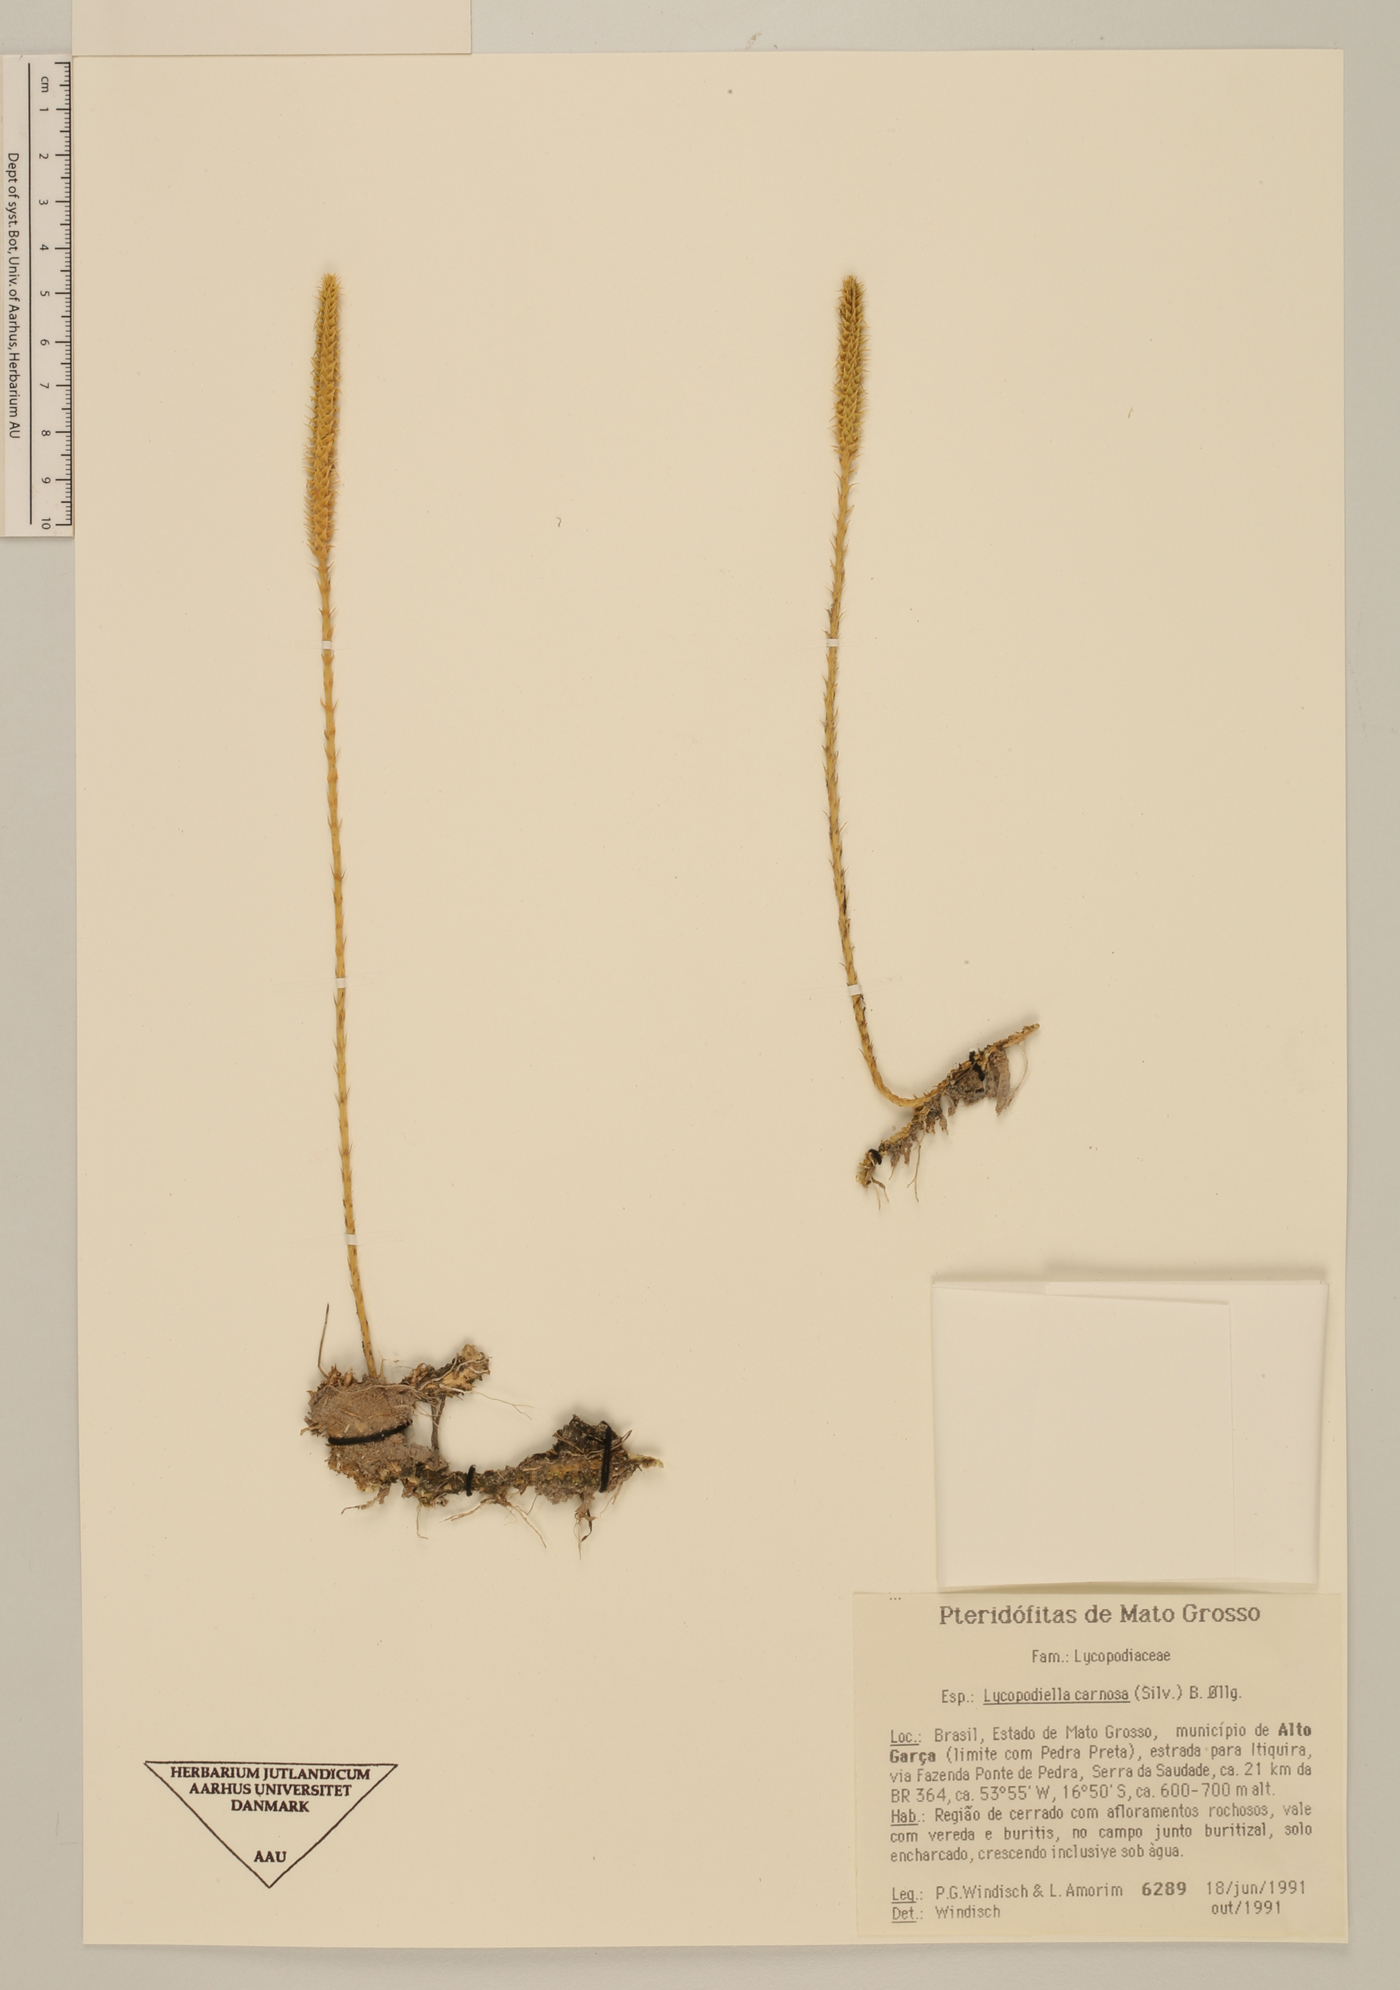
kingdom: Plantae
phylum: Tracheophyta
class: Lycopodiopsida
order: Lycopodiales
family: Lycopodiaceae
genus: Pseudolycopodiella
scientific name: Pseudolycopodiella carnosa
